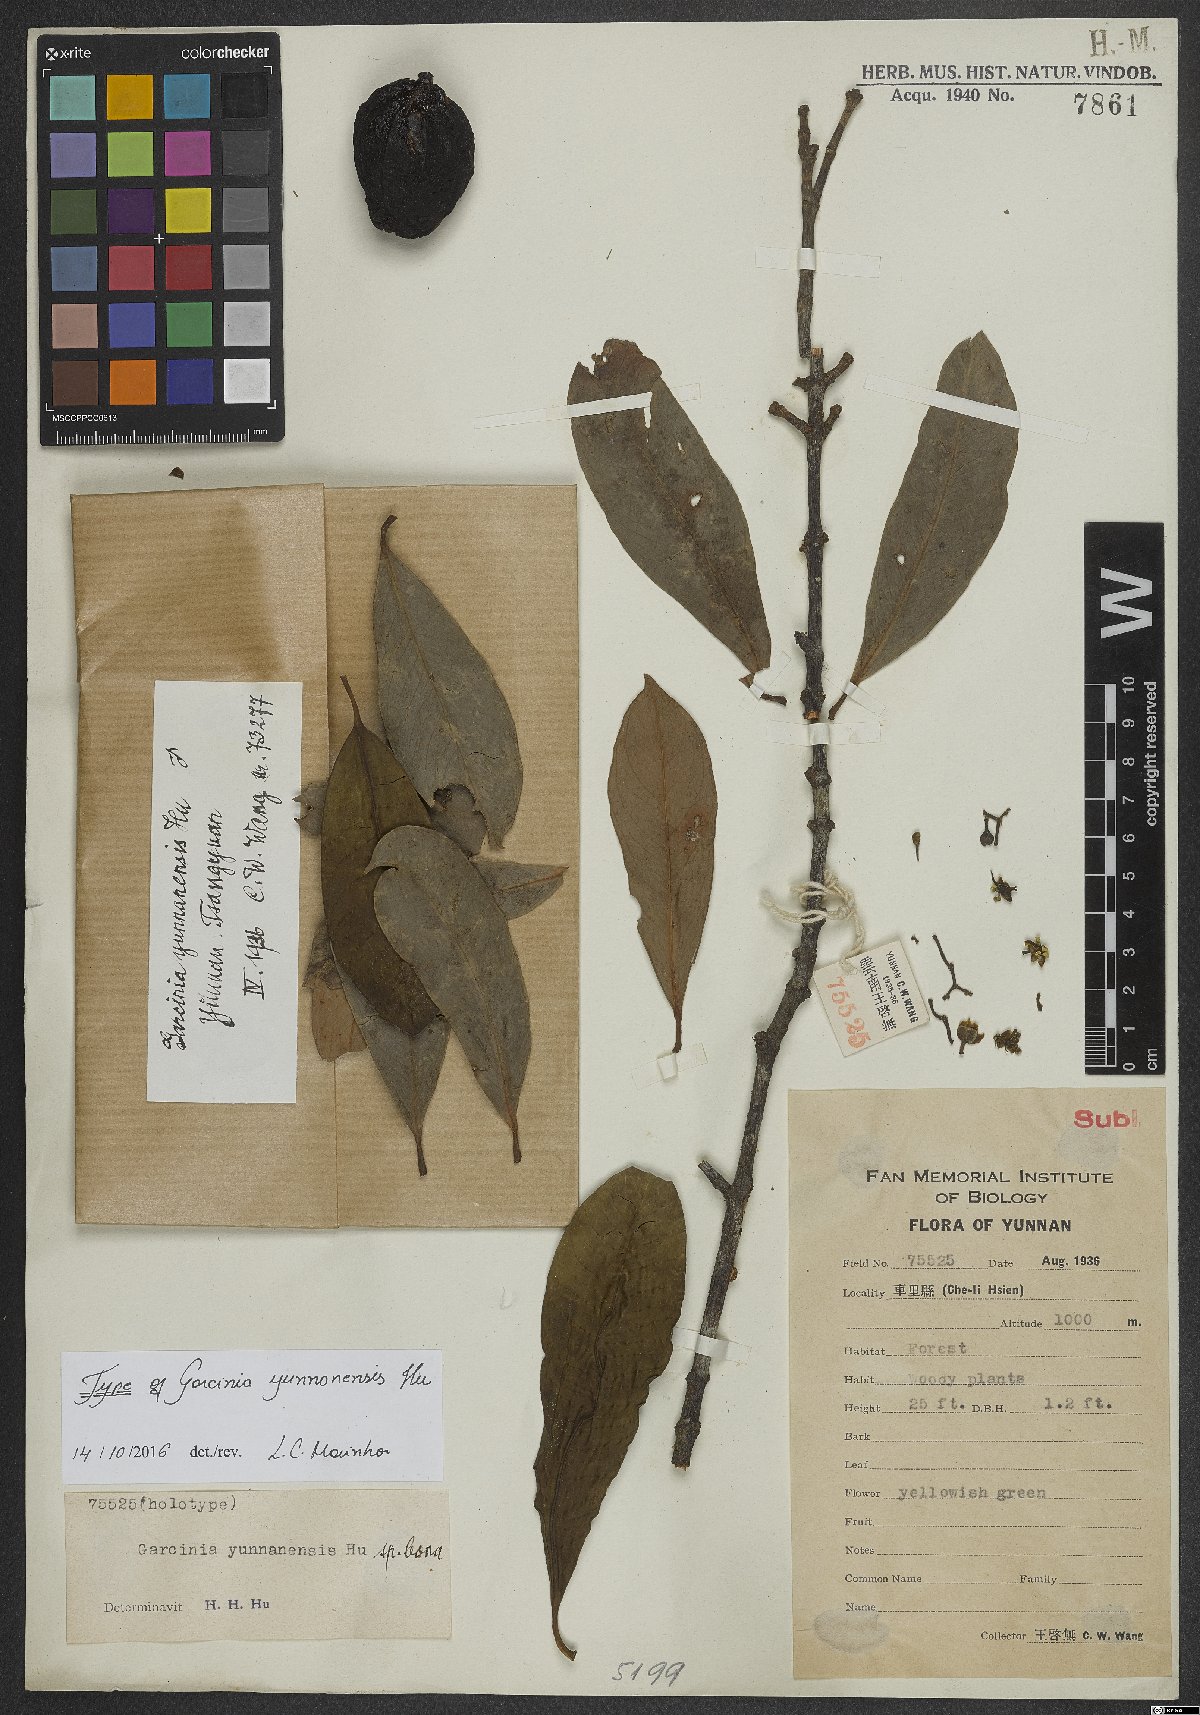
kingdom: Plantae
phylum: Tracheophyta
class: Magnoliopsida
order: Malpighiales
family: Clusiaceae
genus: Garcinia
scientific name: Garcinia yunnanensis
